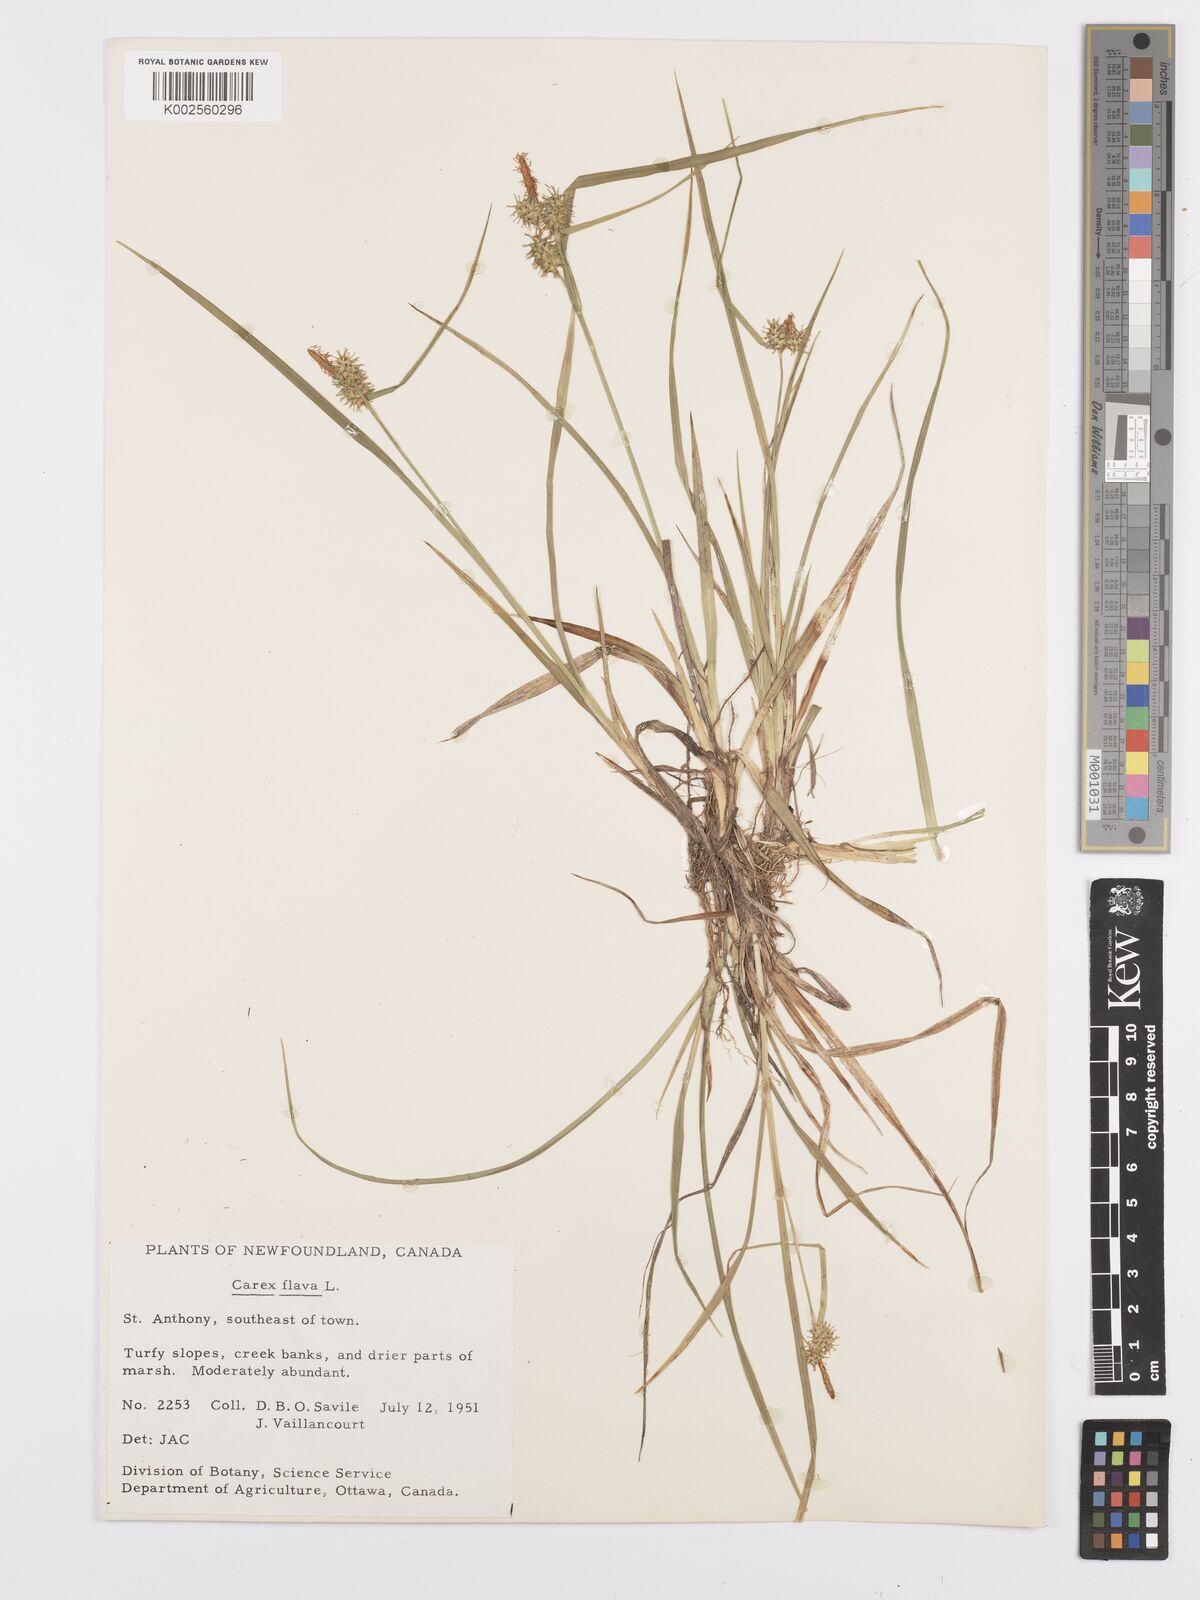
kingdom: Plantae
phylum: Tracheophyta
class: Liliopsida
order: Poales
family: Cyperaceae
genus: Carex
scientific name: Carex flava
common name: Large yellow-sedge
